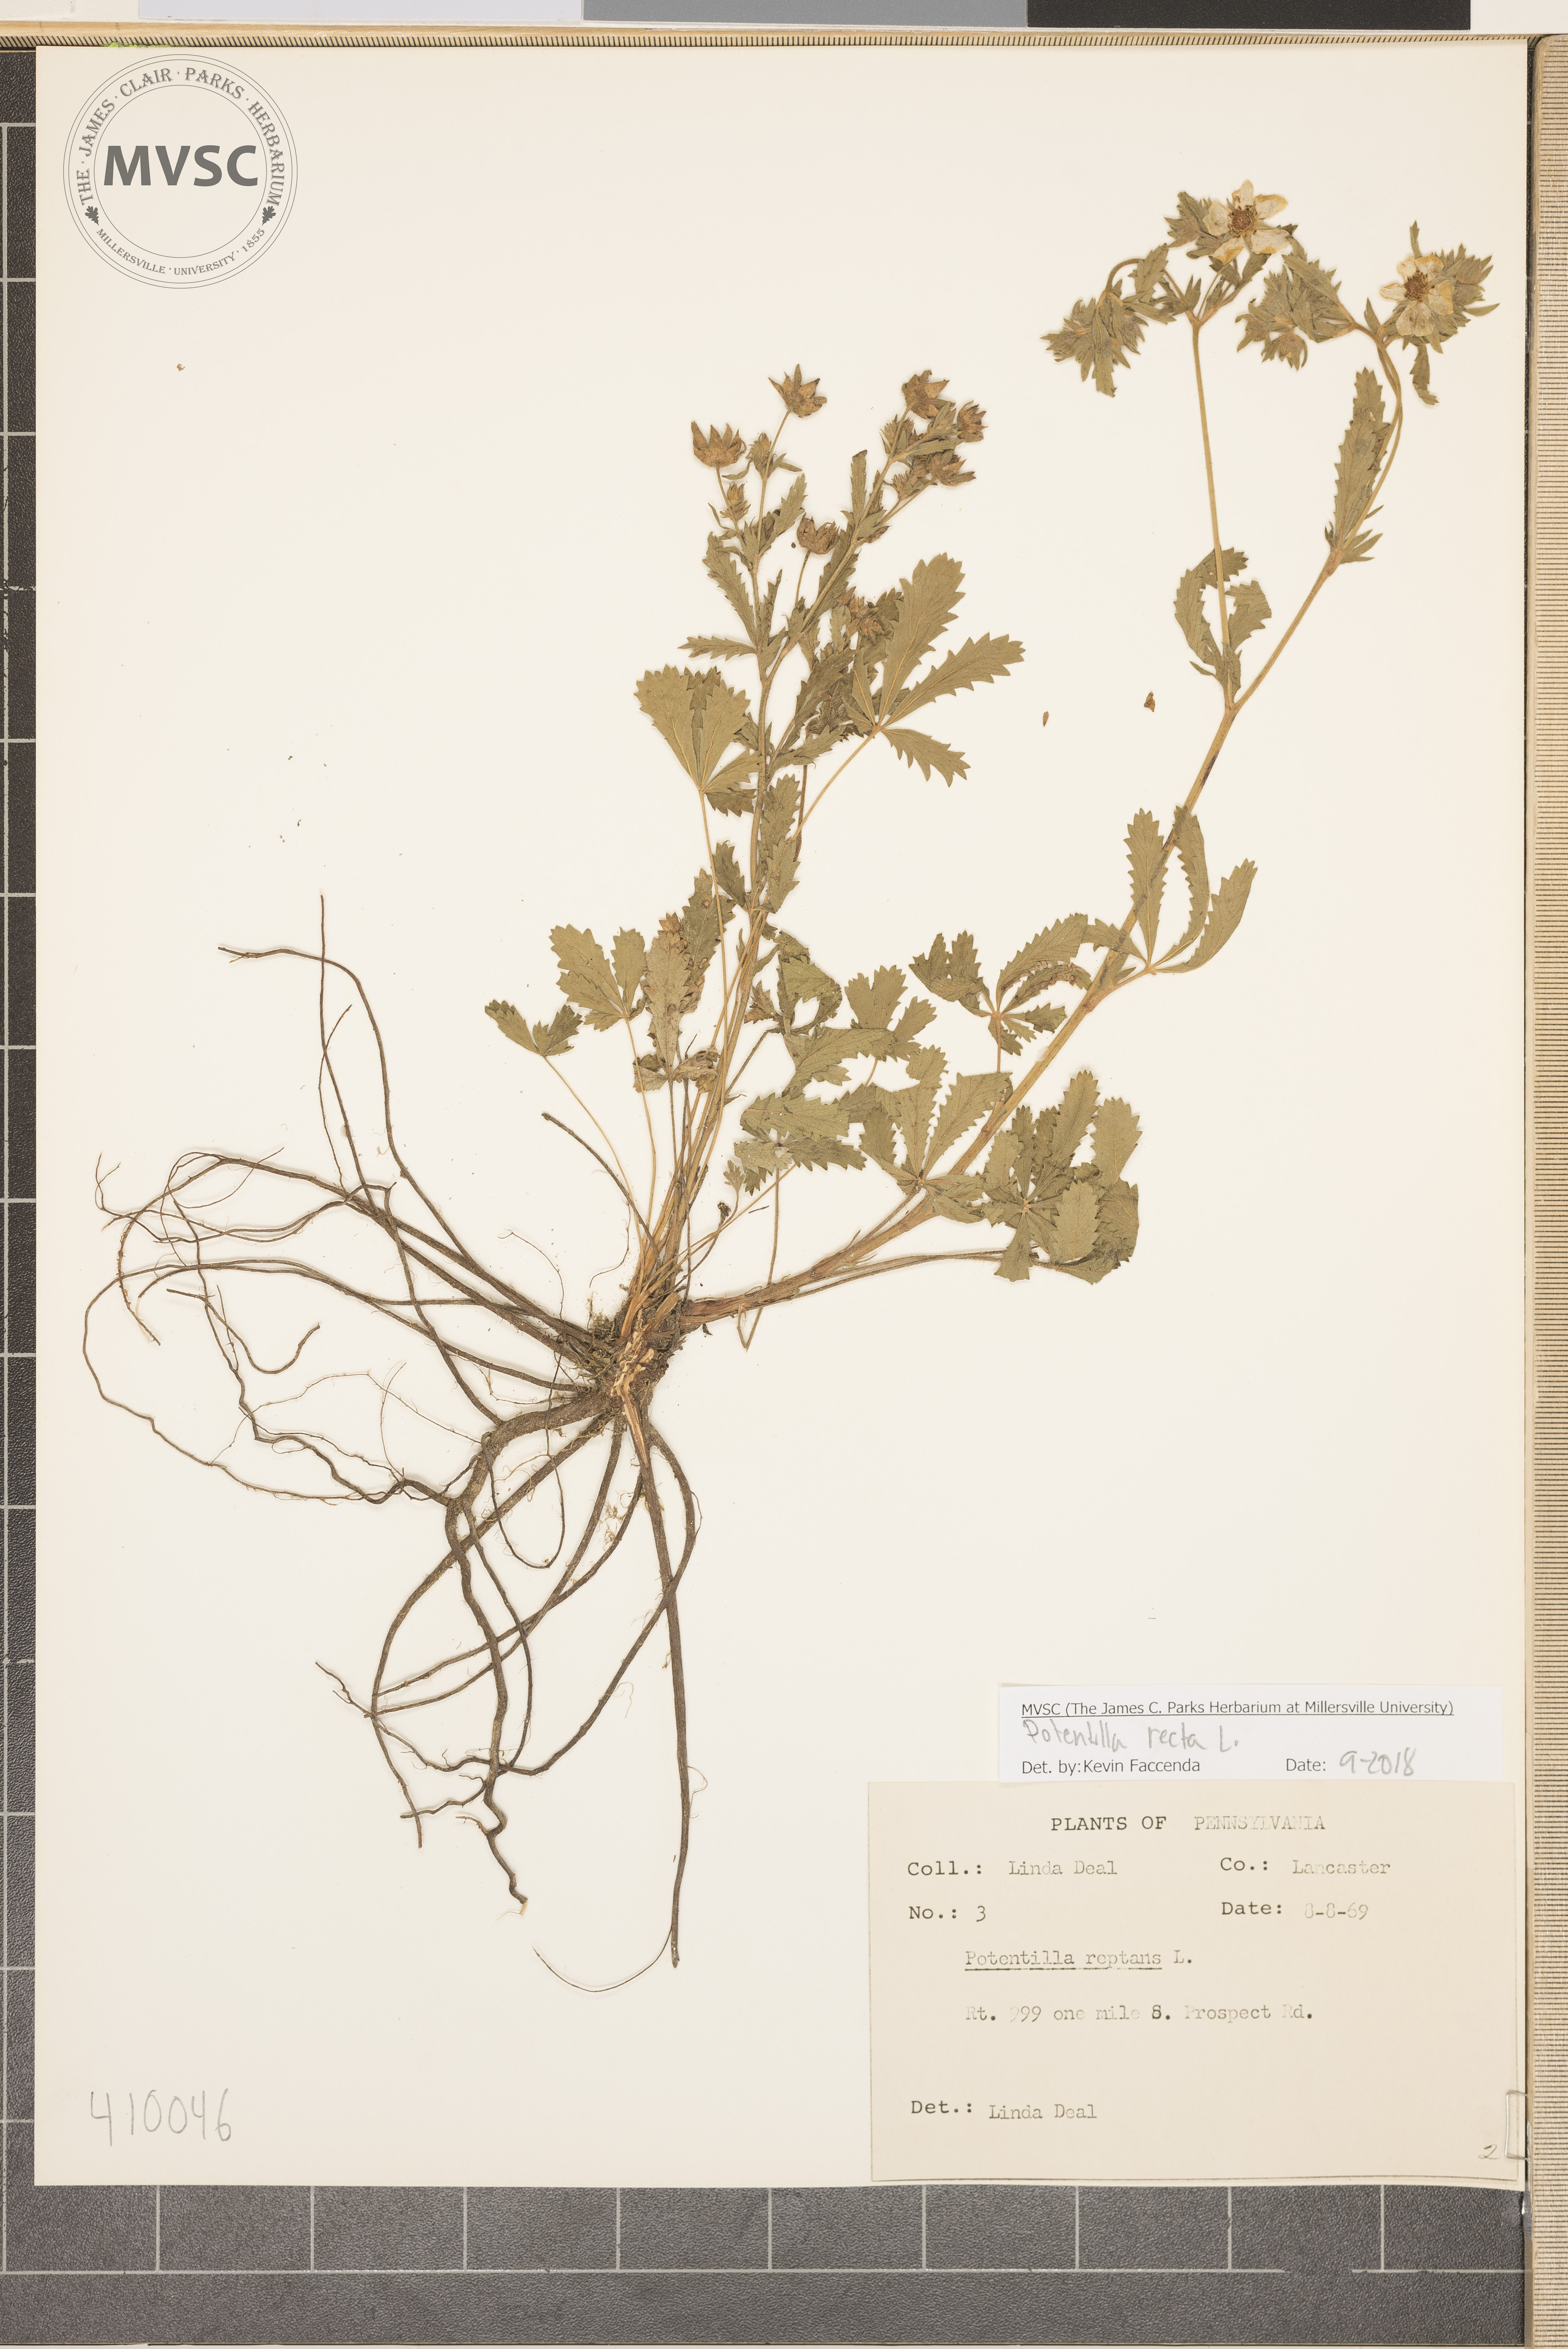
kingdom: Plantae
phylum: Tracheophyta
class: Magnoliopsida
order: Rosales
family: Rosaceae
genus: Potentilla
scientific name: Potentilla recta
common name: Sulphur cinquefoil
